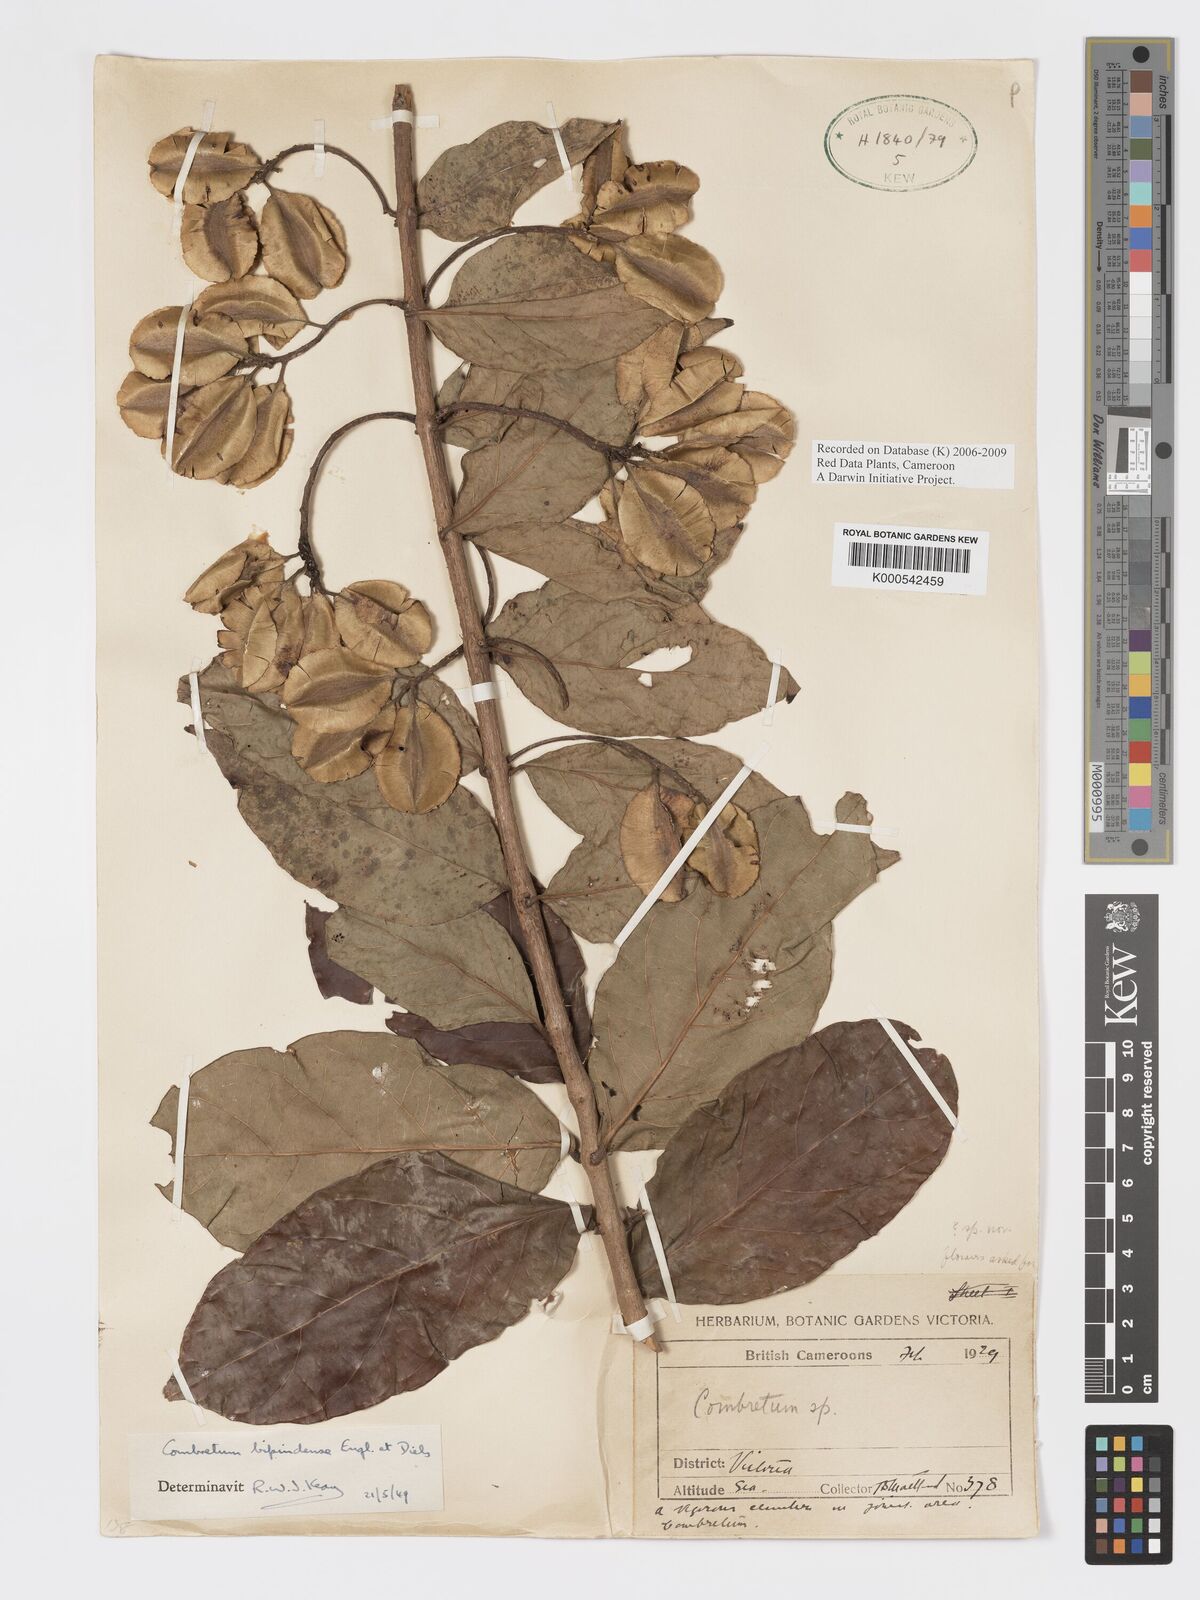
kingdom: Plantae
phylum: Tracheophyta
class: Magnoliopsida
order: Myrtales
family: Combretaceae
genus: Combretum
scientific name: Combretum bipindense
